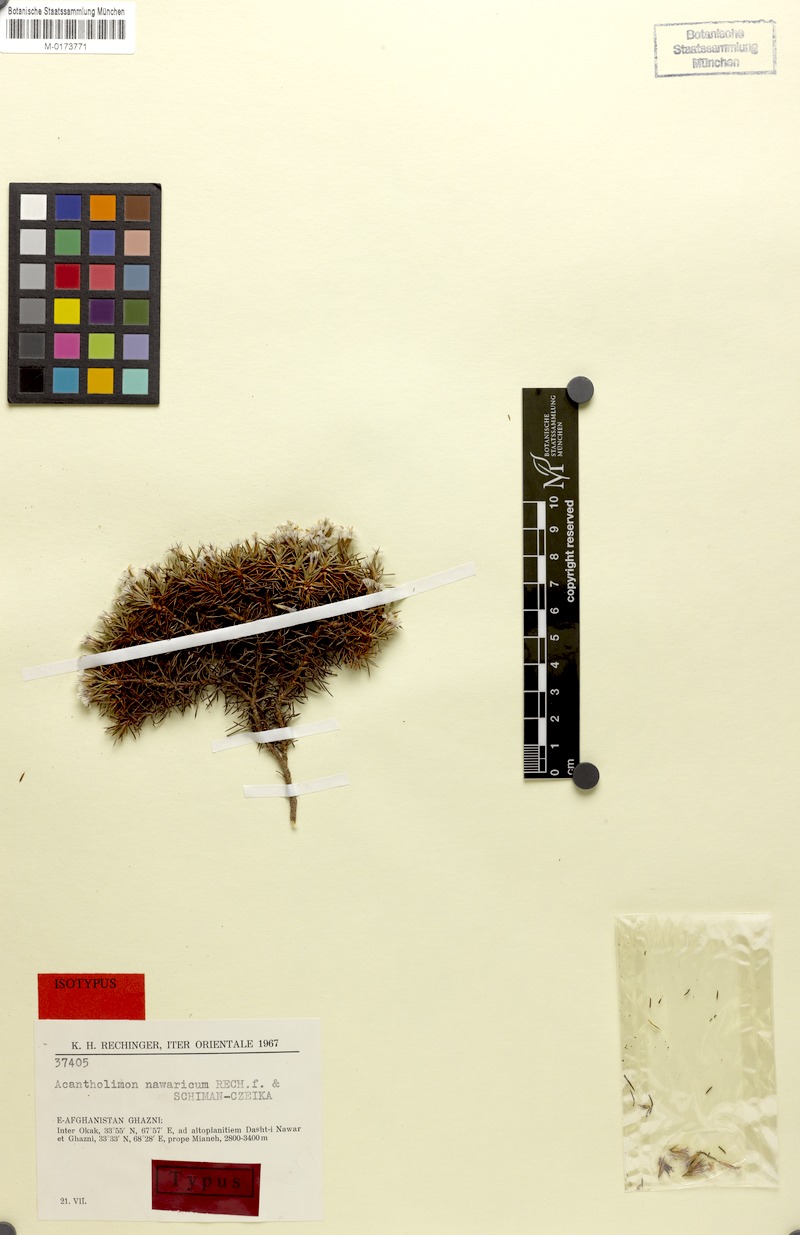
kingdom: Plantae
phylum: Tracheophyta
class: Magnoliopsida
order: Caryophyllales
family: Plumbaginaceae
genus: Acantholimon
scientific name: Acantholimon nawaricum
